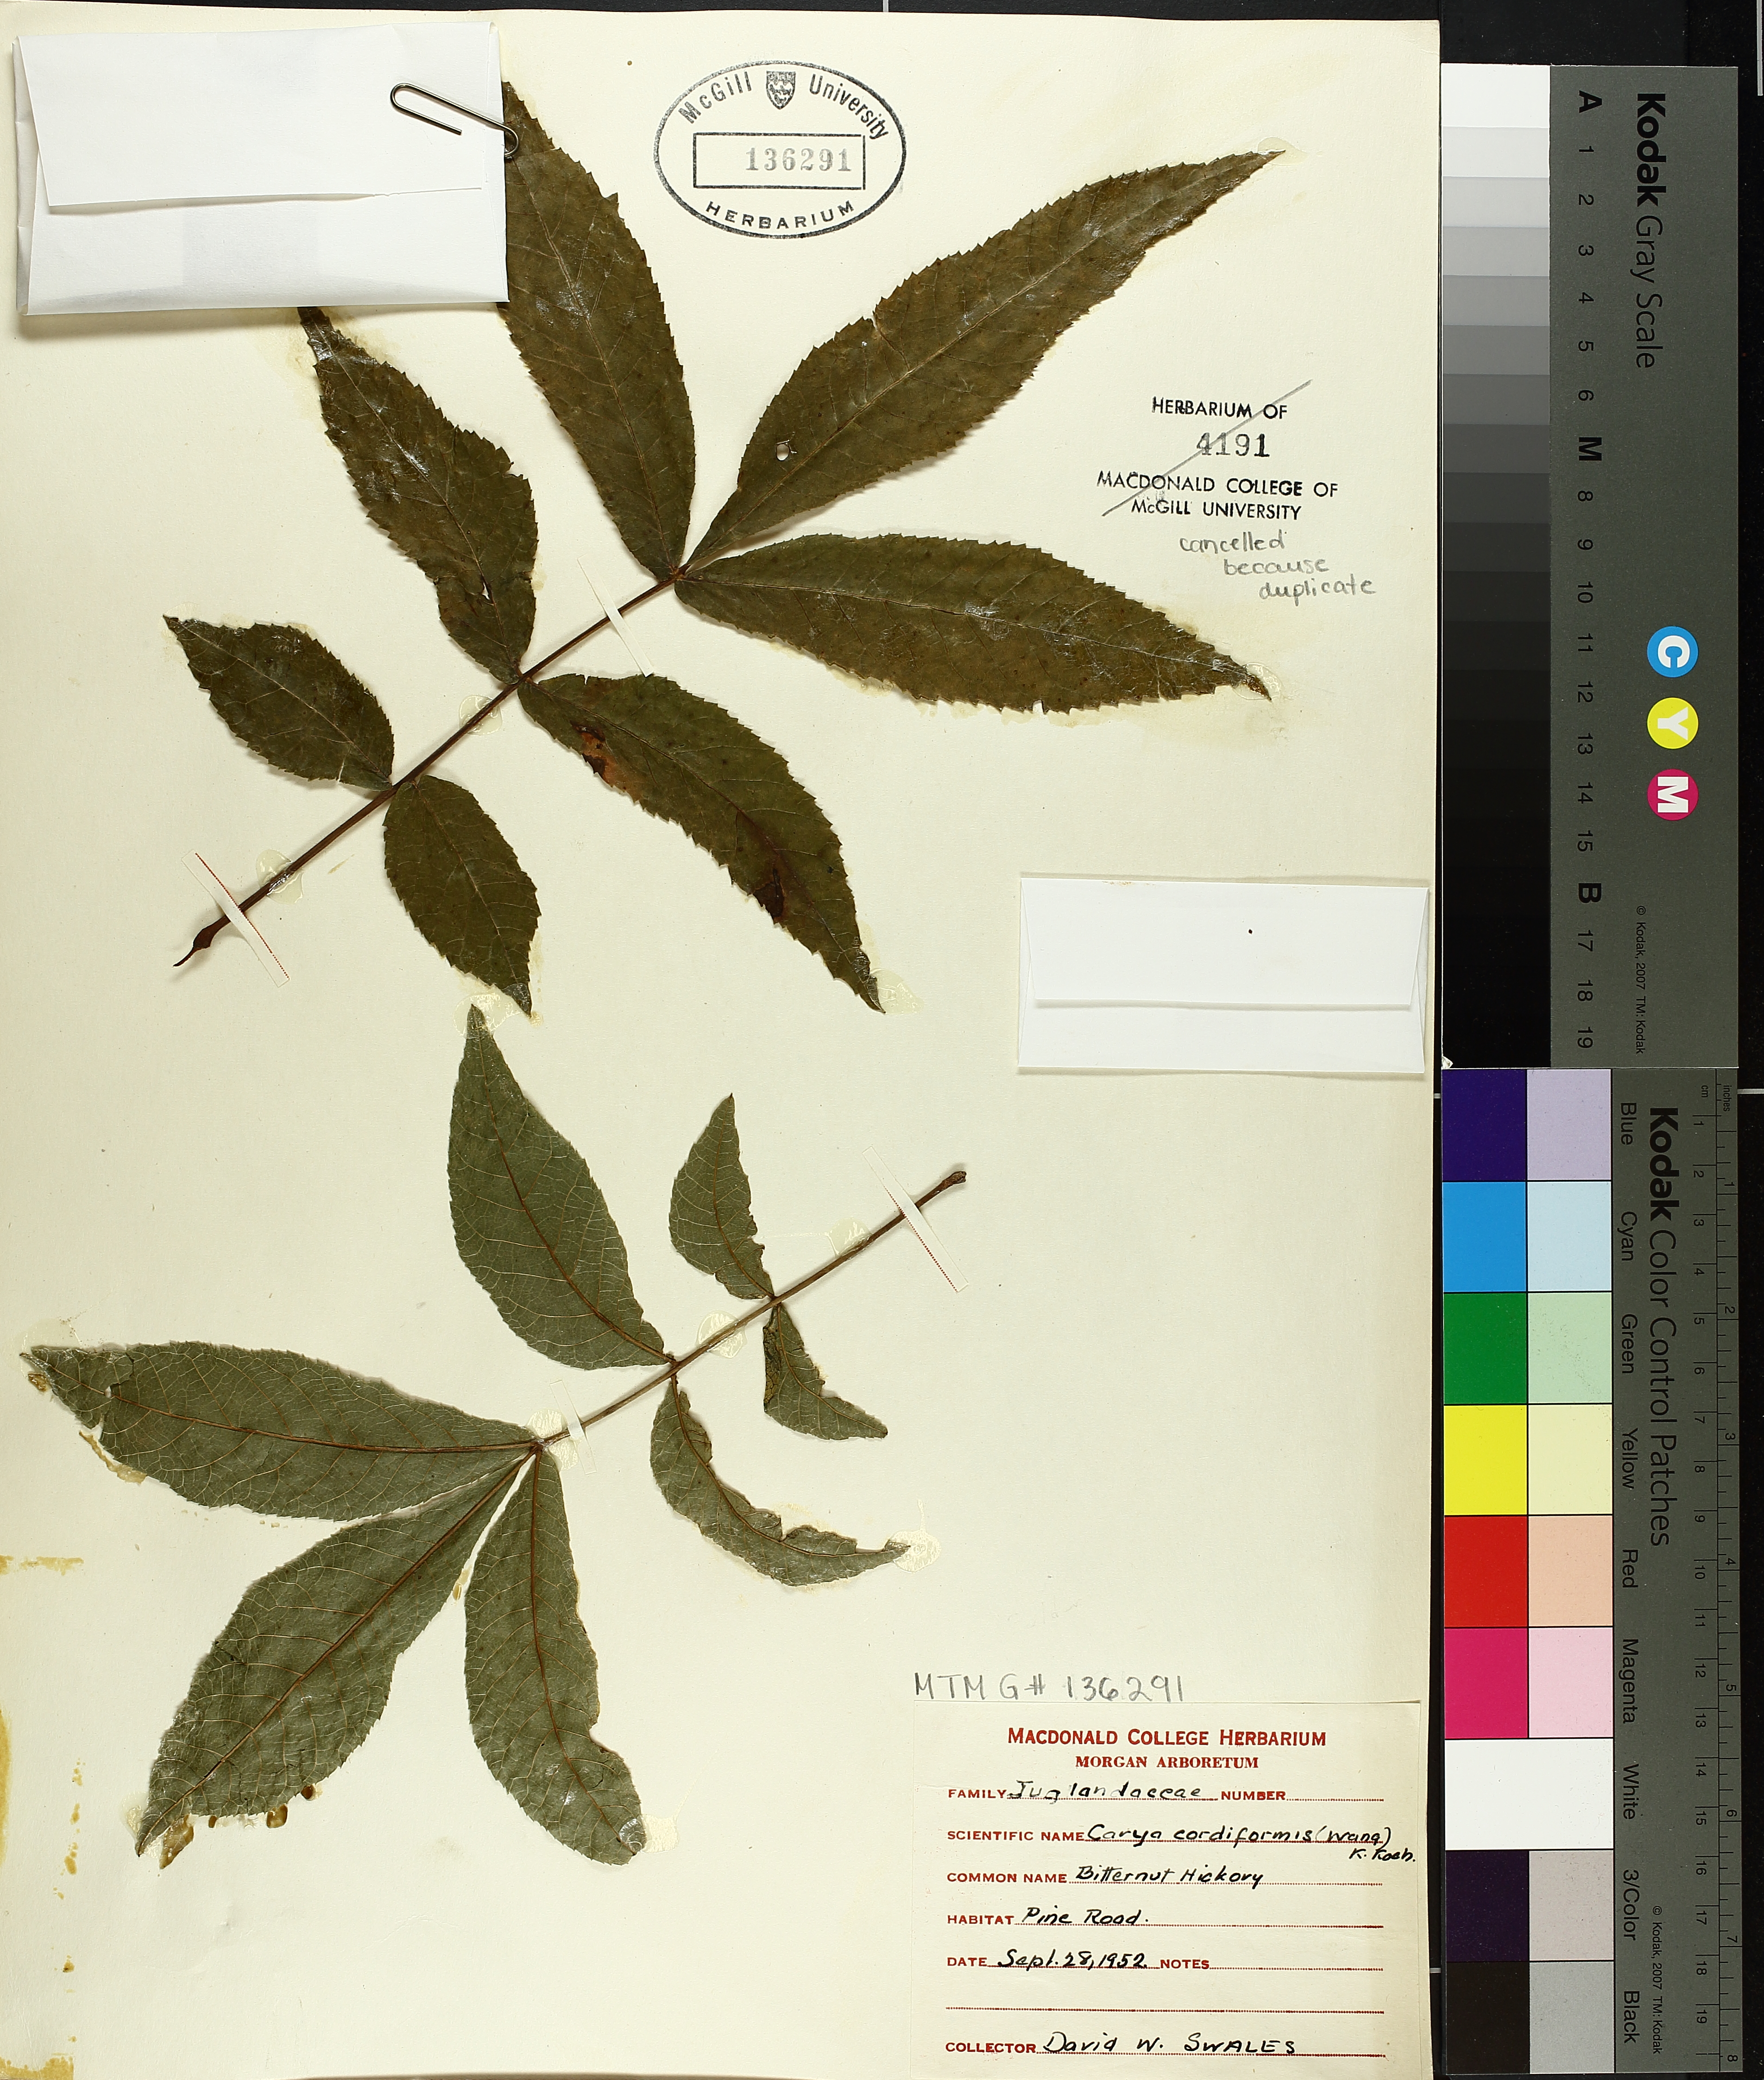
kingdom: Plantae
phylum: Tracheophyta
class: Magnoliopsida
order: Fagales
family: Juglandaceae
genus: Carya
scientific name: Carya cordiformis
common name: Bitternut hickory
